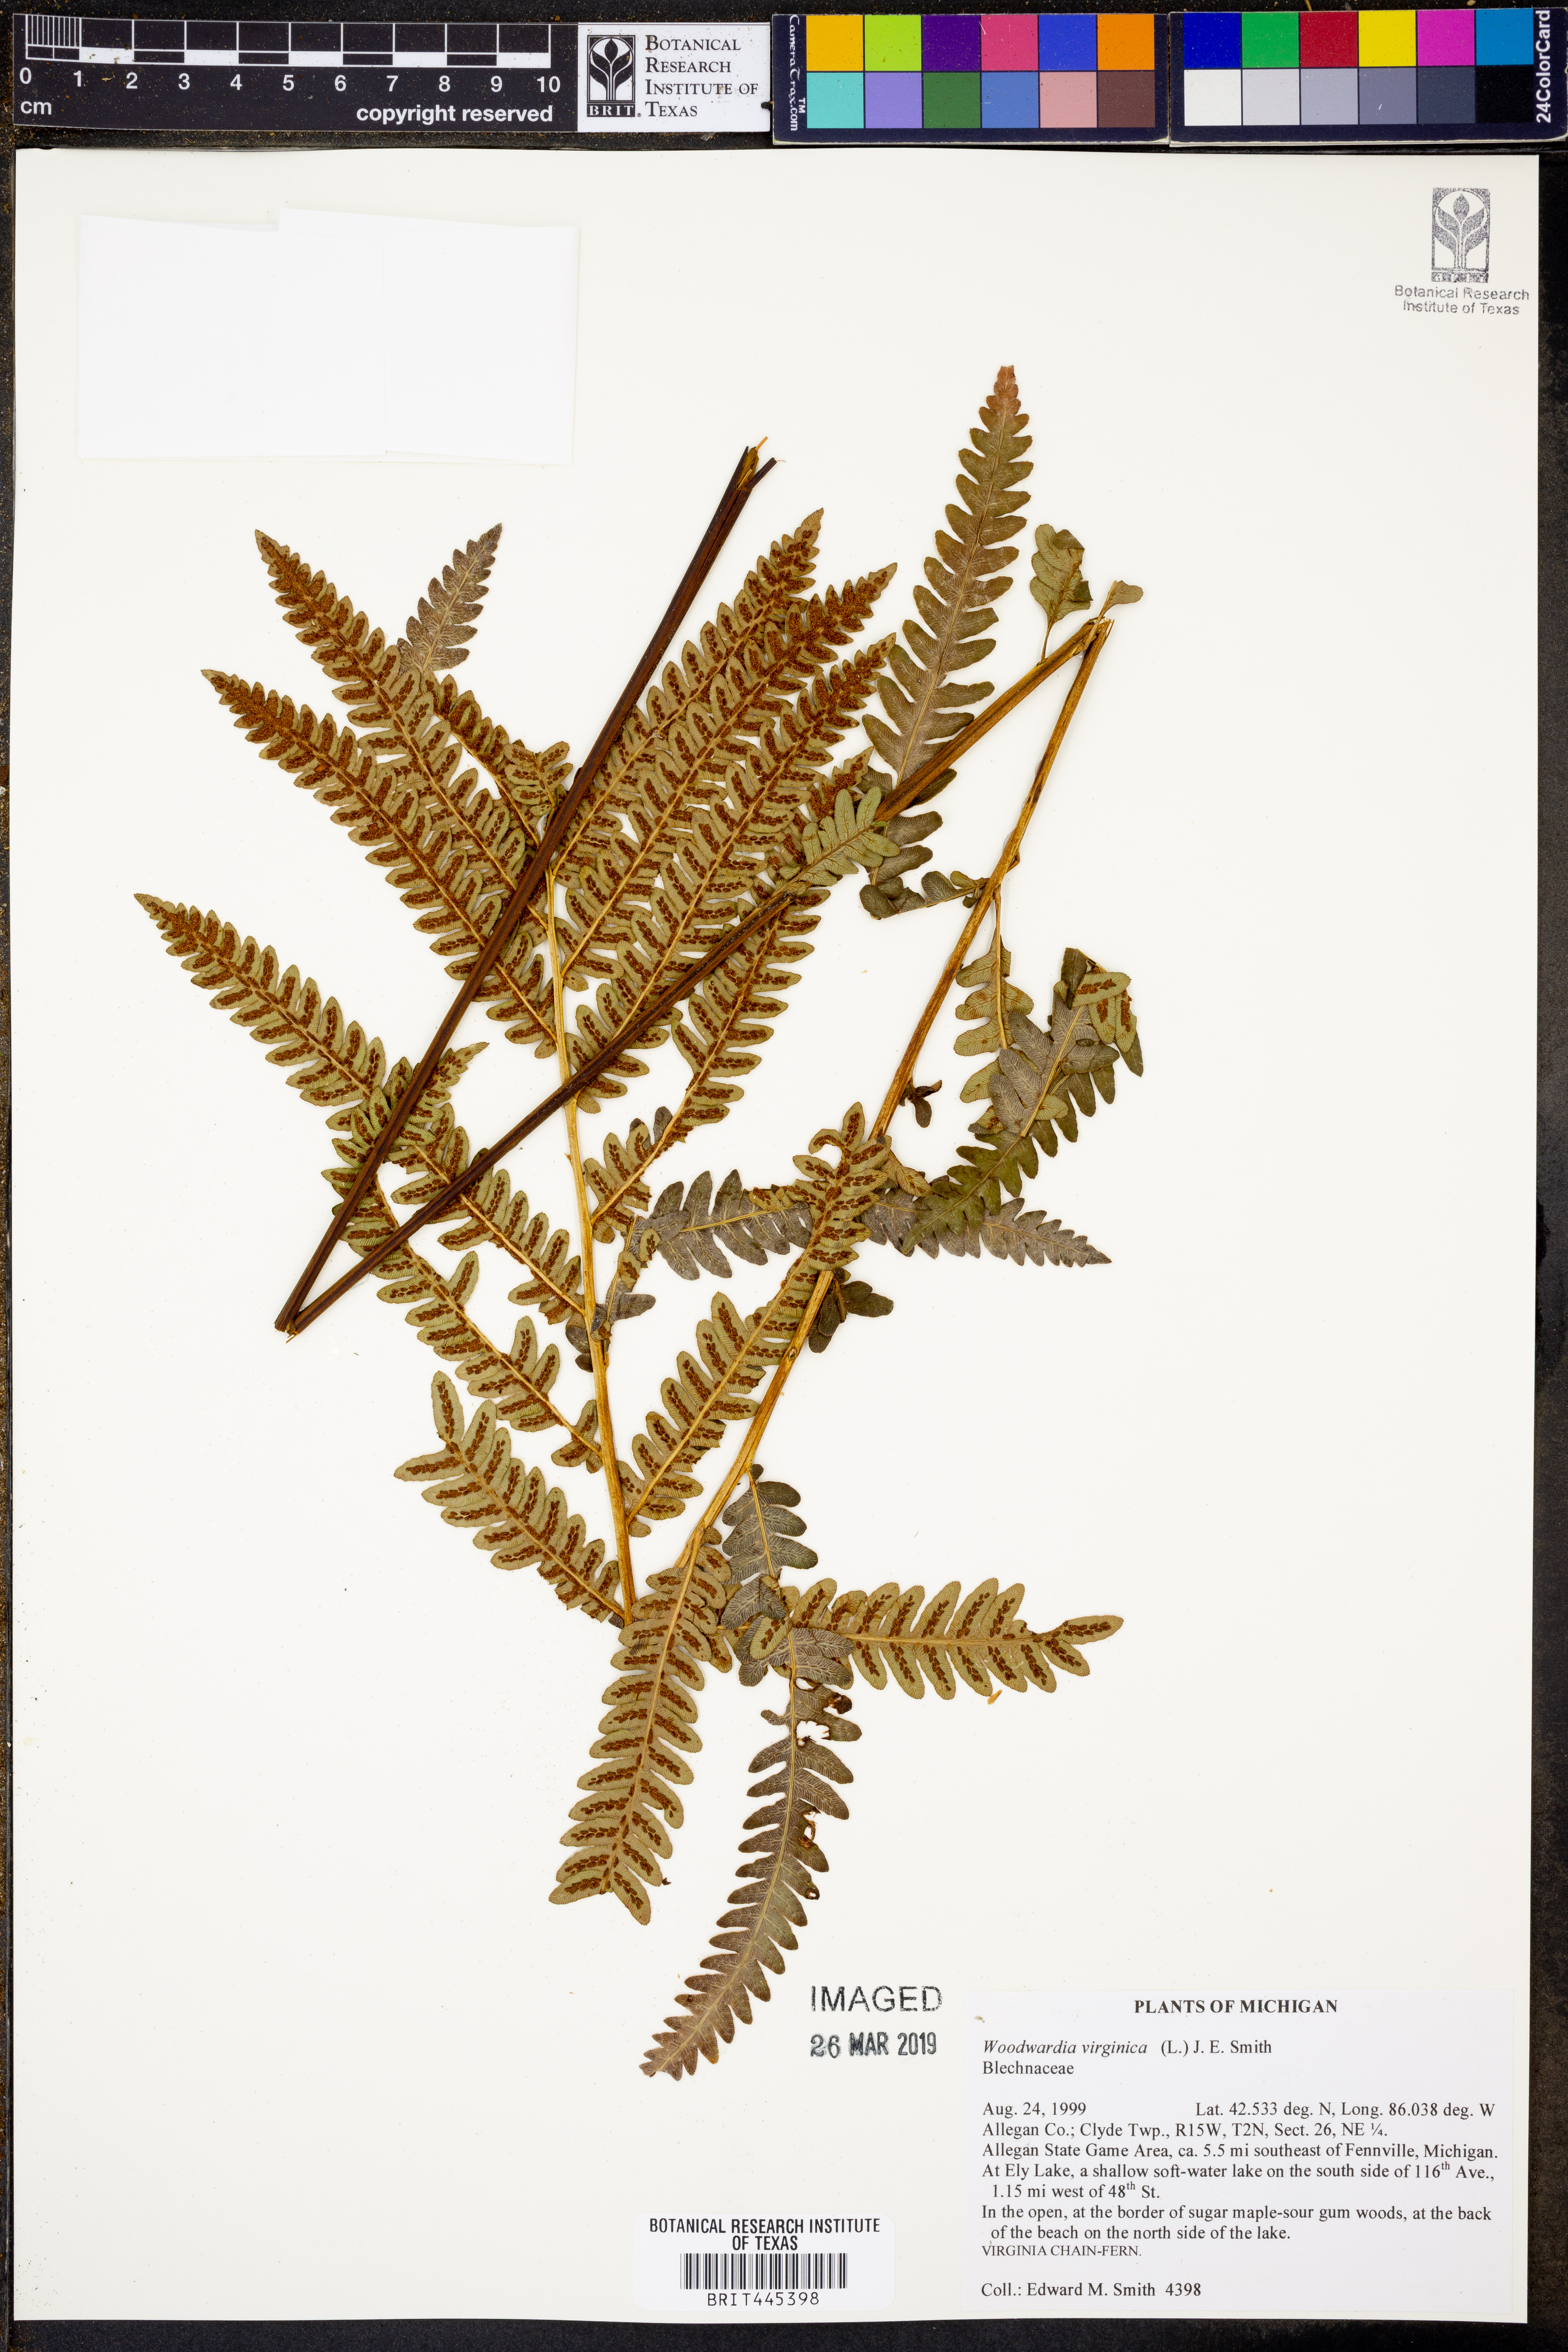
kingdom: Plantae
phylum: Tracheophyta
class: Polypodiopsida
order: Polypodiales
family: Blechnaceae
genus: Anchistea
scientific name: Anchistea virginica
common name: Virginia chain fern
